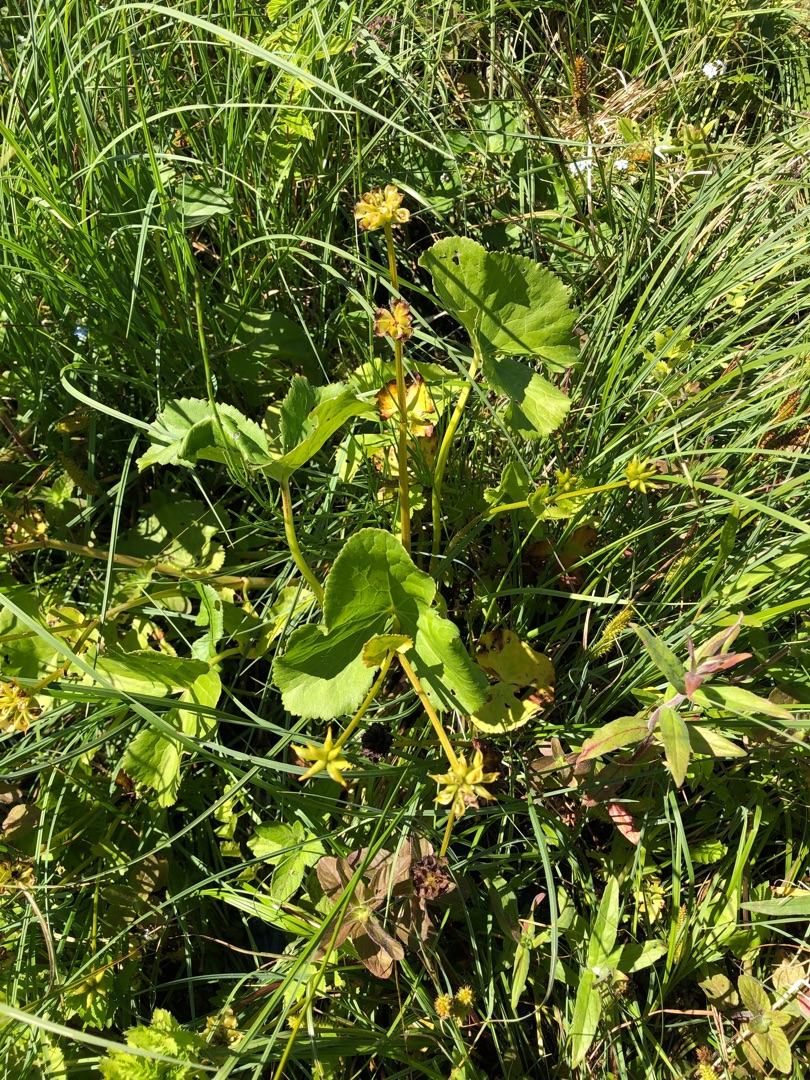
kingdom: Plantae
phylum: Tracheophyta
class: Magnoliopsida
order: Ranunculales
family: Ranunculaceae
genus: Caltha
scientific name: Caltha palustris
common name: Eng-kabbeleje
